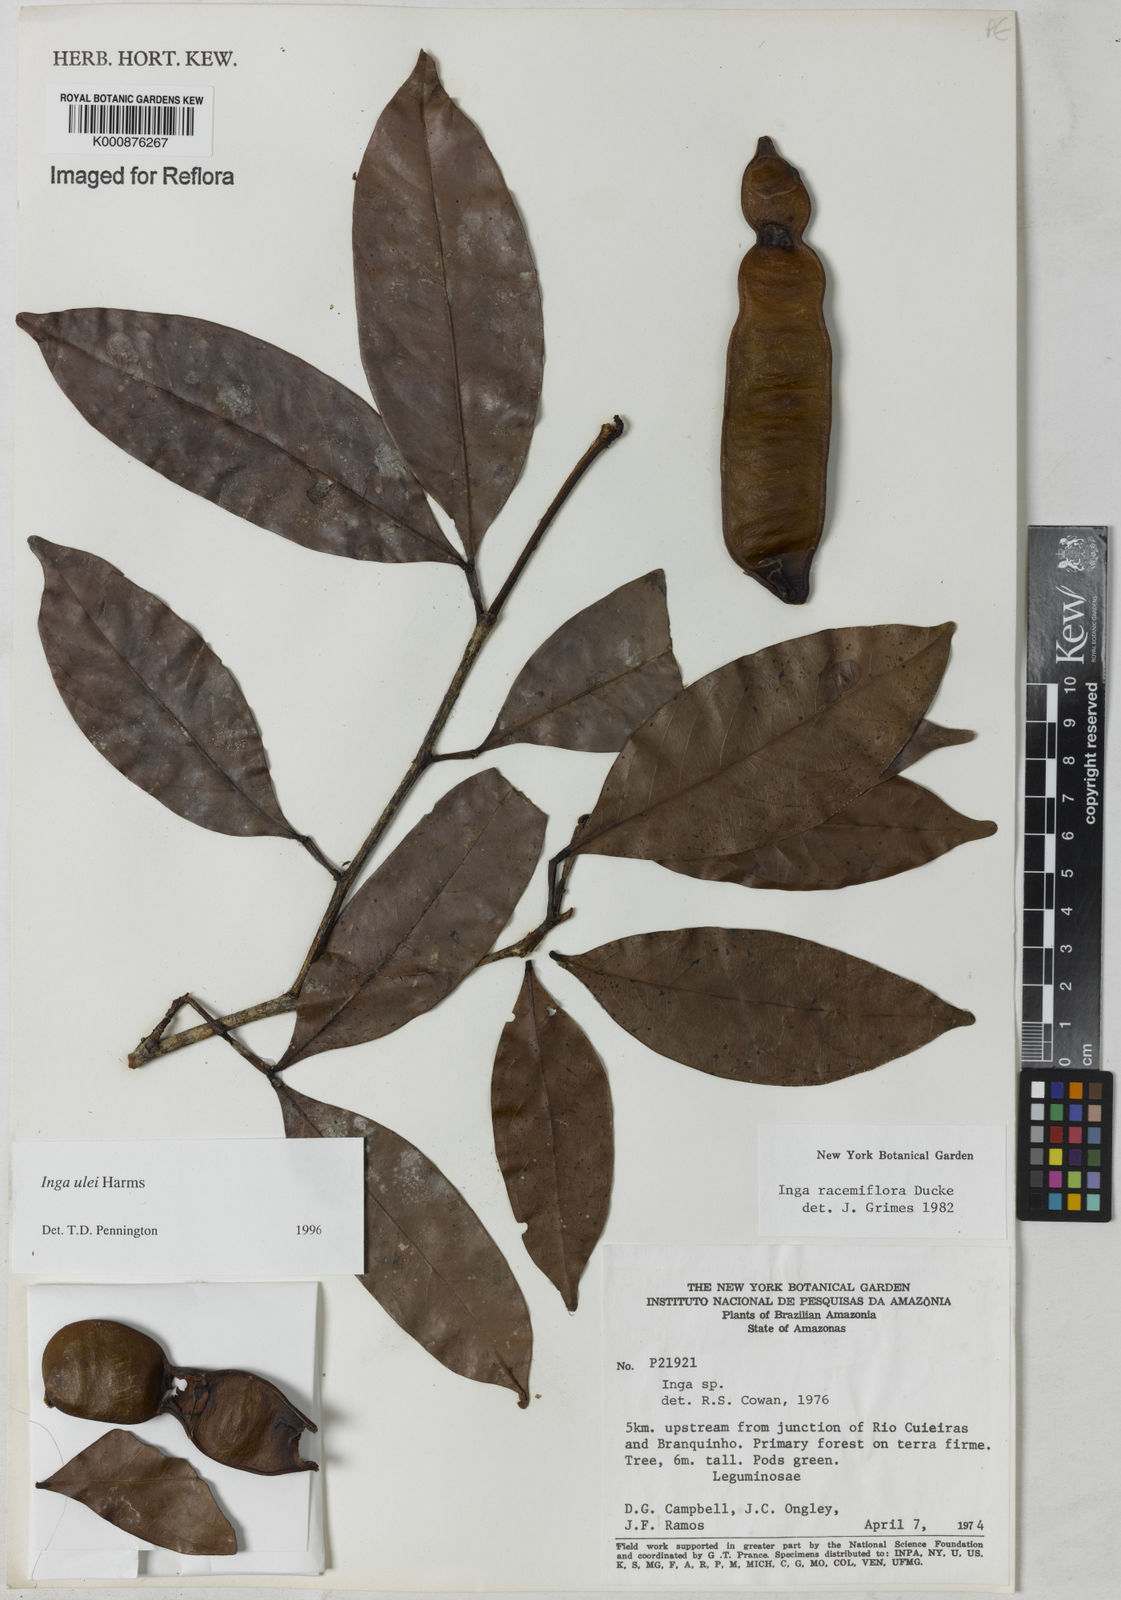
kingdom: Plantae
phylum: Tracheophyta
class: Magnoliopsida
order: Fabales
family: Fabaceae
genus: Inga
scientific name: Inga ulei
